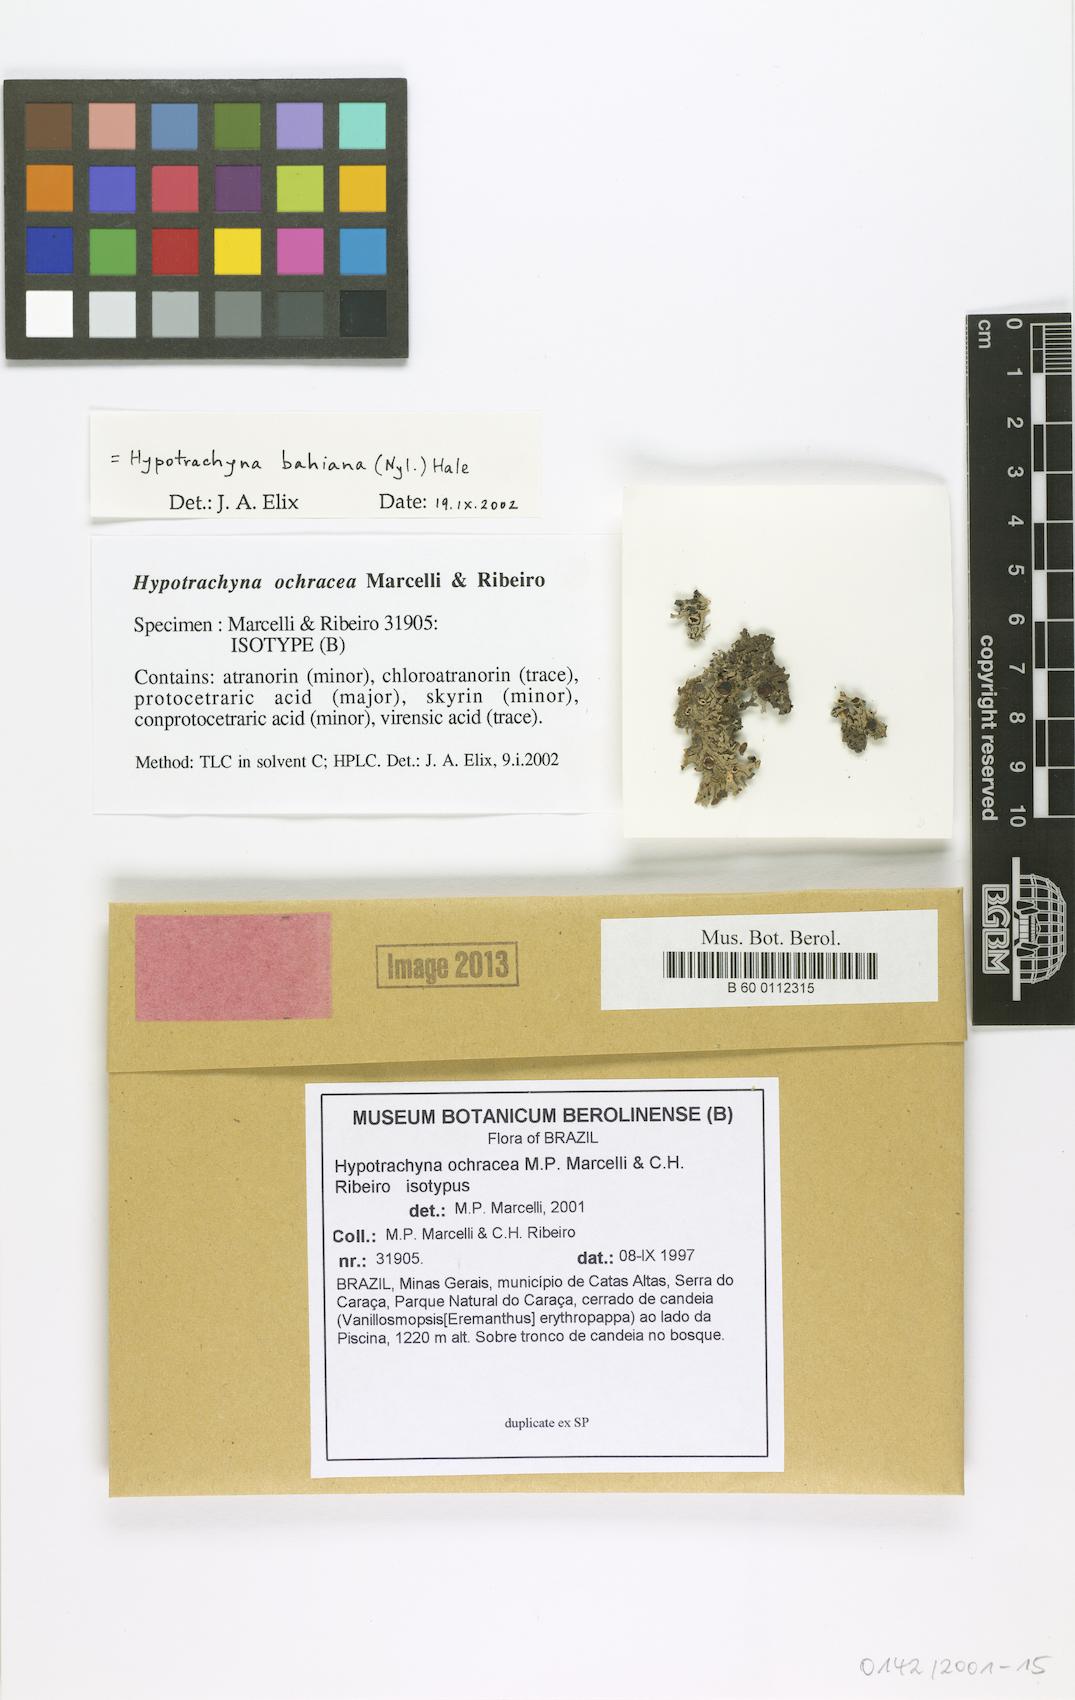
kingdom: Fungi
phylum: Ascomycota
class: Lecanoromycetes
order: Lecanorales
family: Parmeliaceae
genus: Hypotrachyna
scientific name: Hypotrachyna ochracea
